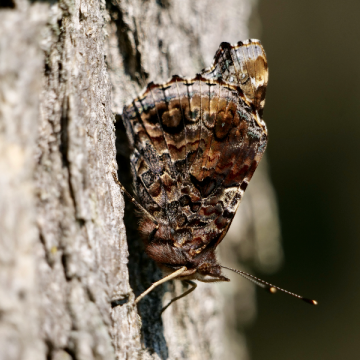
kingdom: Animalia
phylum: Arthropoda
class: Insecta
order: Lepidoptera
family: Nymphalidae
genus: Vanessa
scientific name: Vanessa atalanta
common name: Red Admiral
